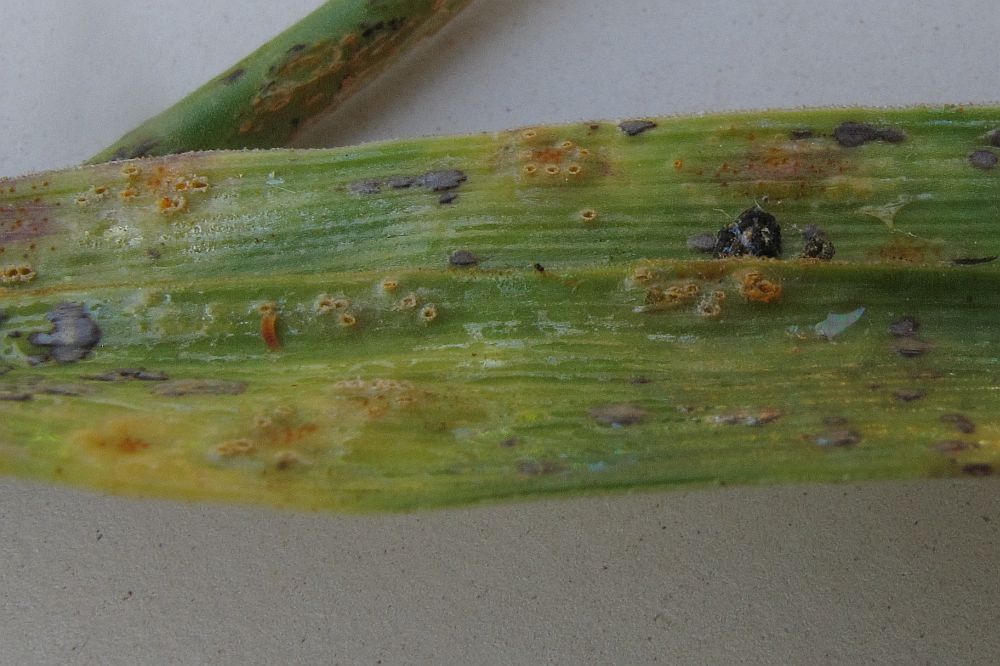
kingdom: Fungi
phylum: Basidiomycota
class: Pucciniomycetes
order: Pucciniales
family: Pucciniaceae
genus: Puccinia
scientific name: Puccinia sessilis
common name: Arum rust
